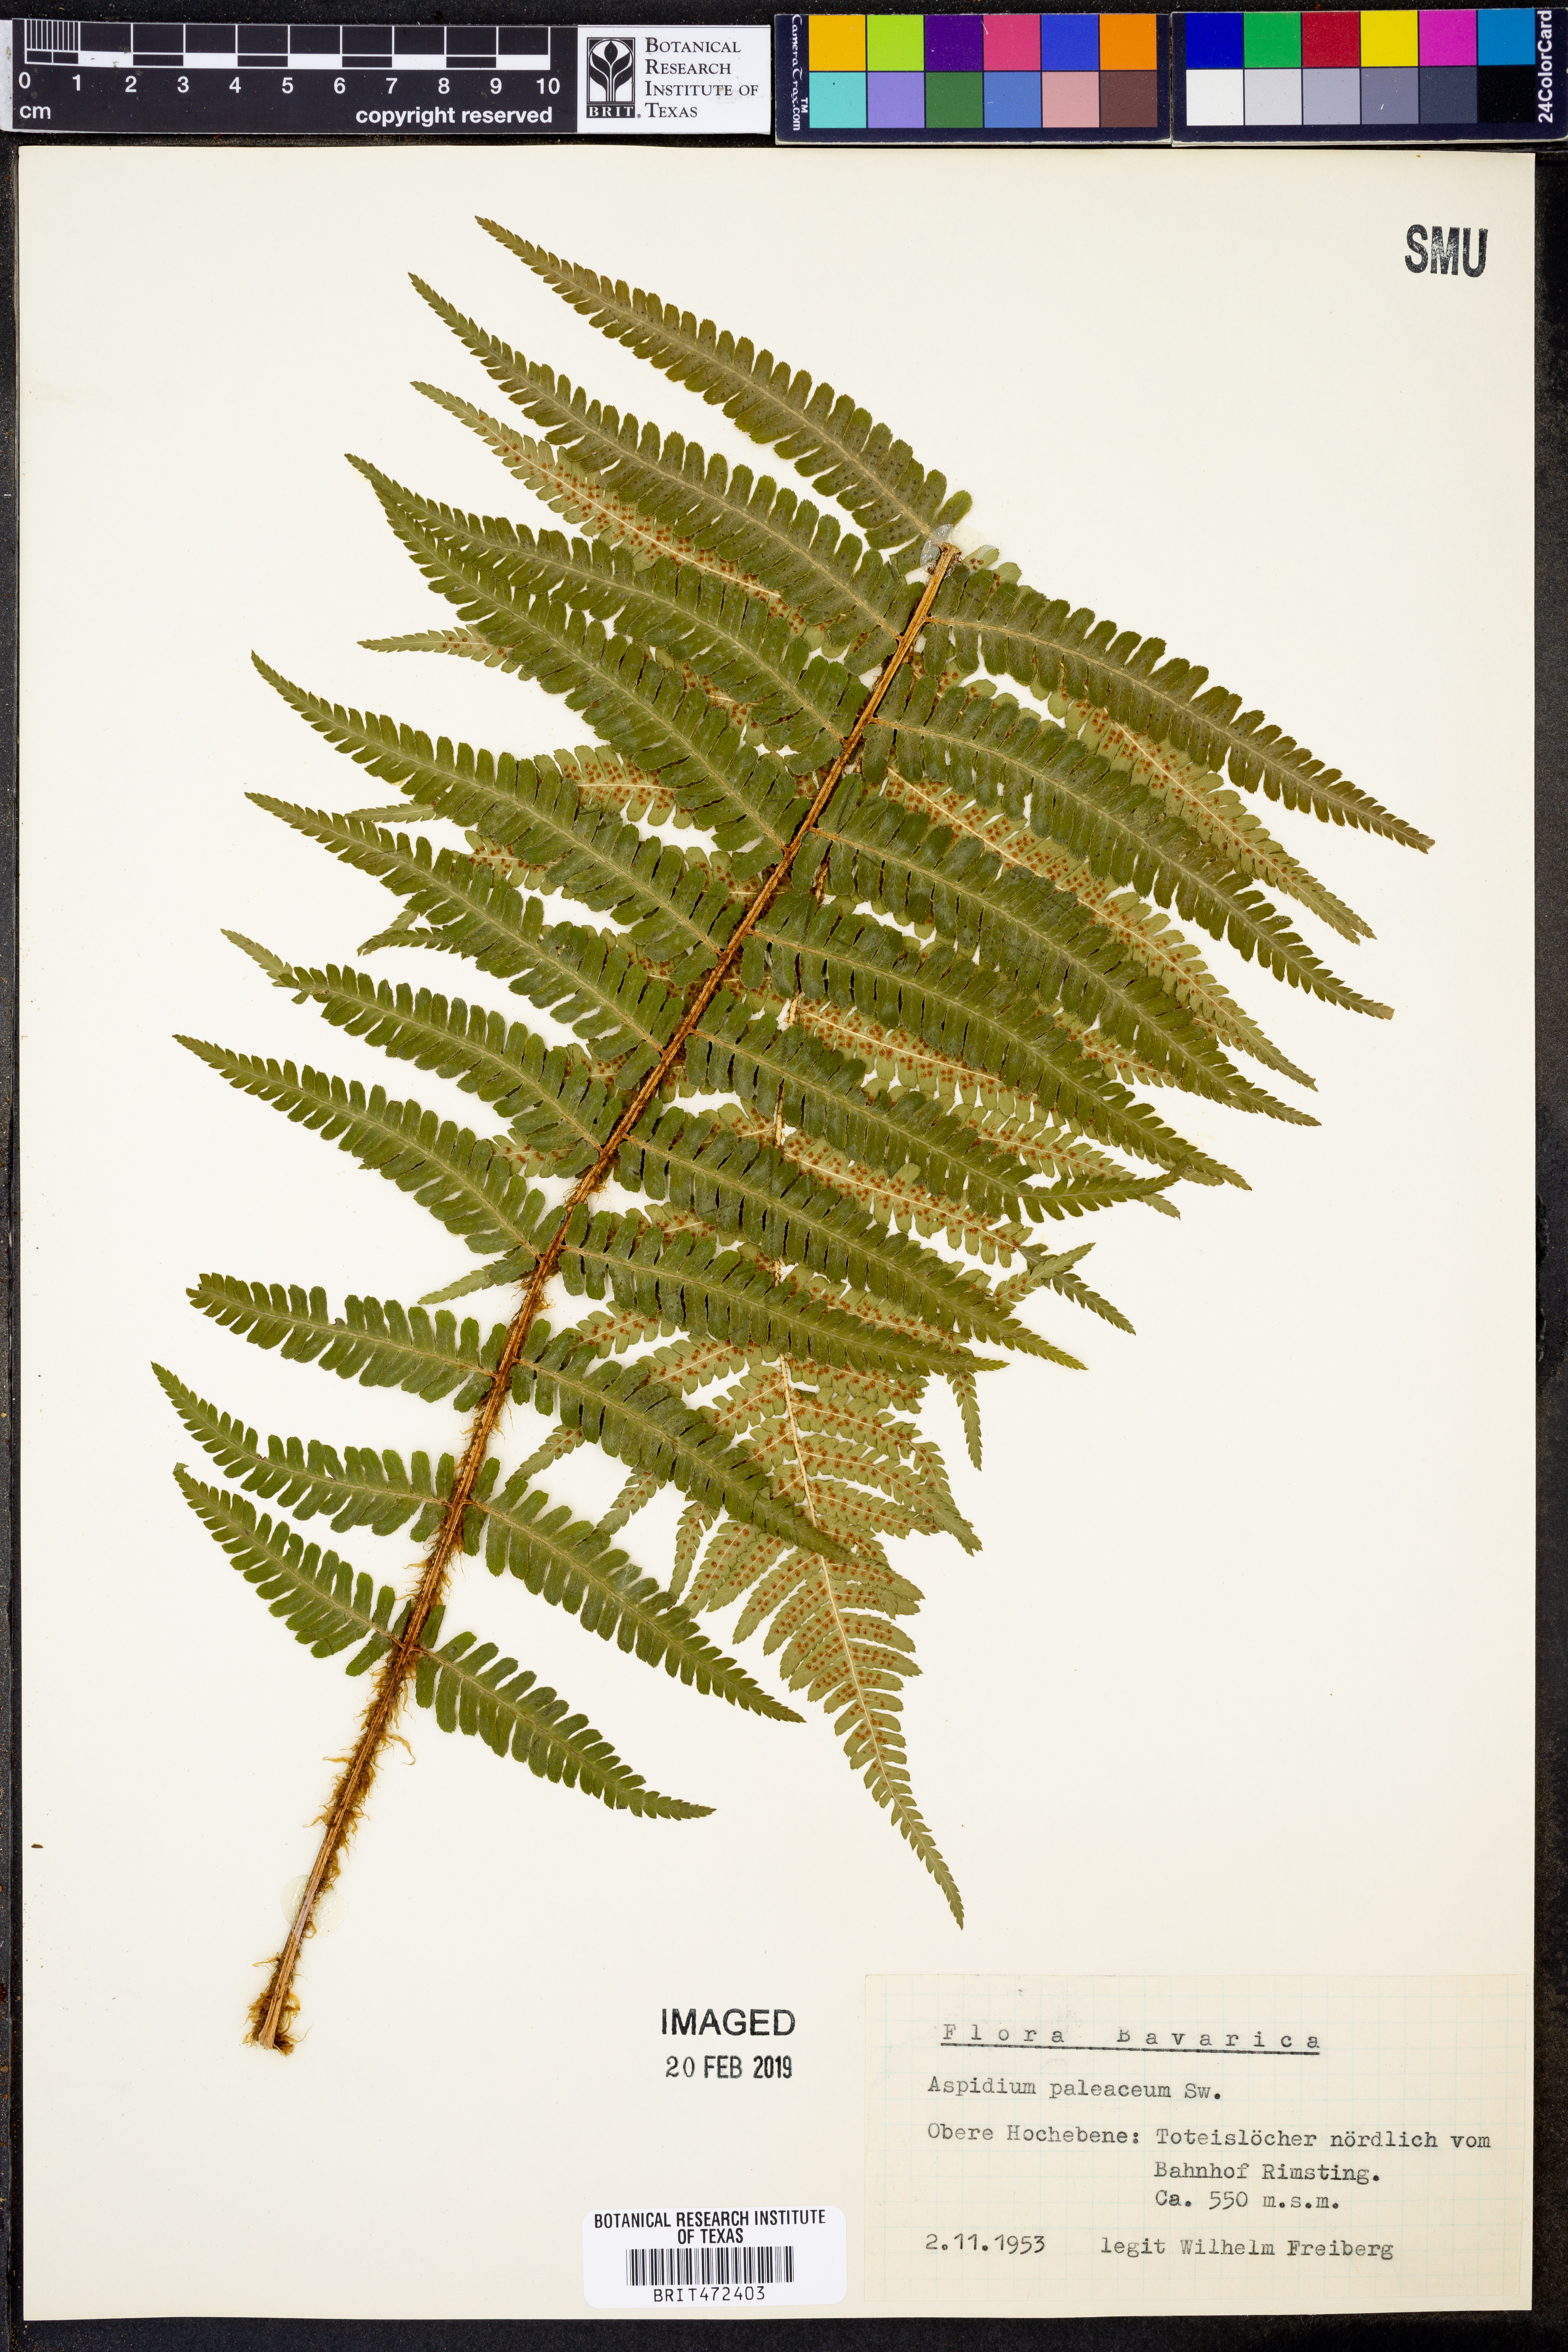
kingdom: Plantae
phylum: Tracheophyta
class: Polypodiopsida
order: Polypodiales
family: Dryopteridaceae
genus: Dryopteris
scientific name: Dryopteris wallichiana
